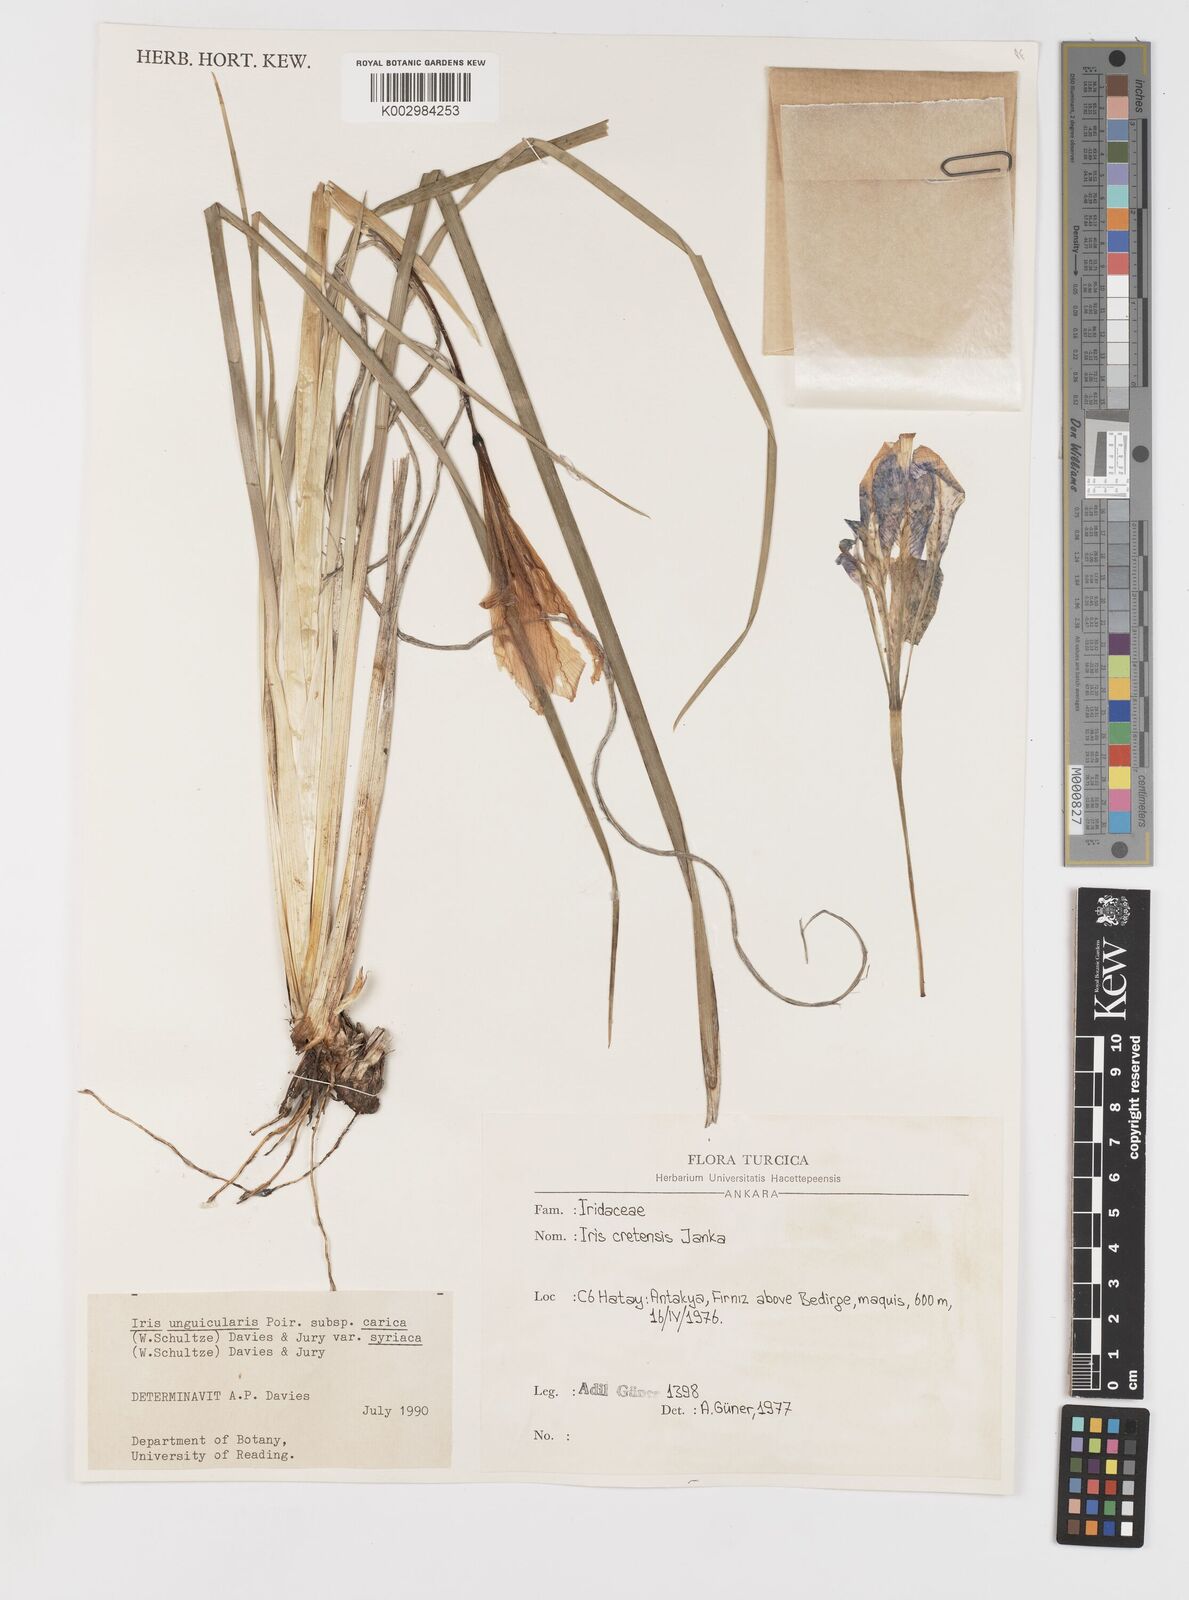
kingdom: Plantae
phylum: Tracheophyta
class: Liliopsida
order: Asparagales
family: Iridaceae
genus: Iris
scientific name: Iris unguicularis
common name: Algerian iris
